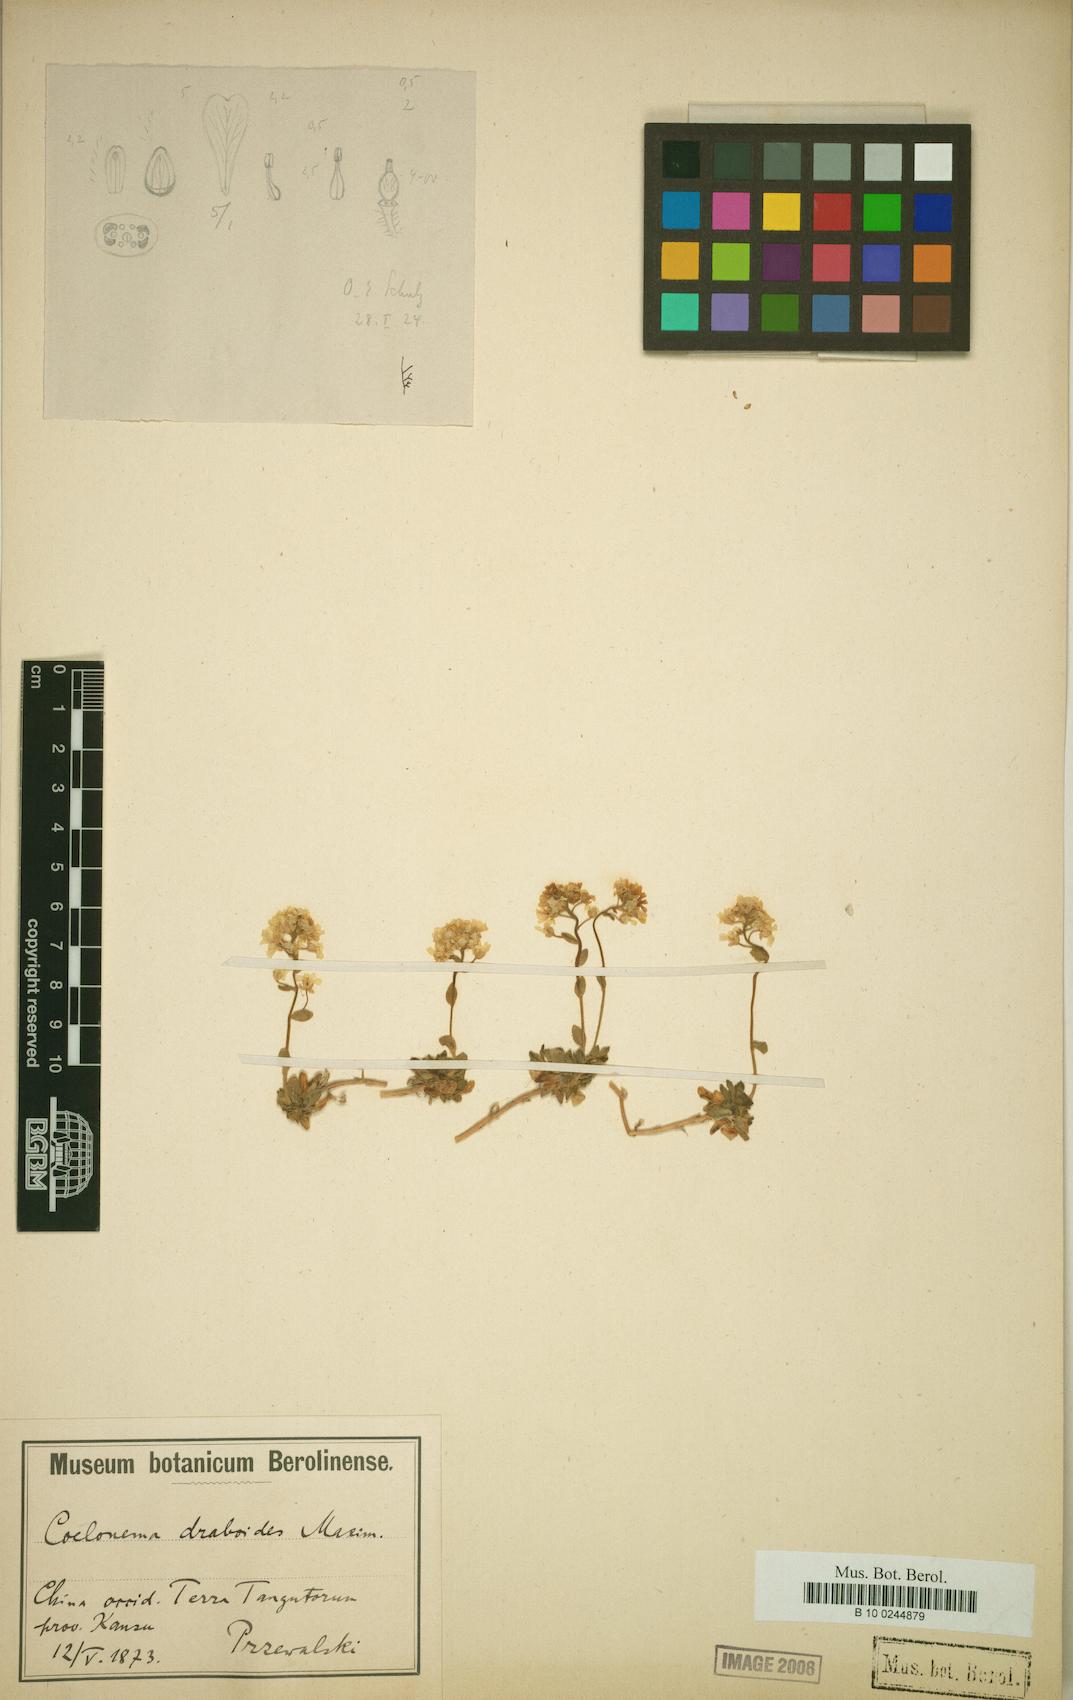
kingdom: Plantae
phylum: Tracheophyta
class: Magnoliopsida
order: Brassicales
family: Brassicaceae
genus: Draba
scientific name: Draba draboides
